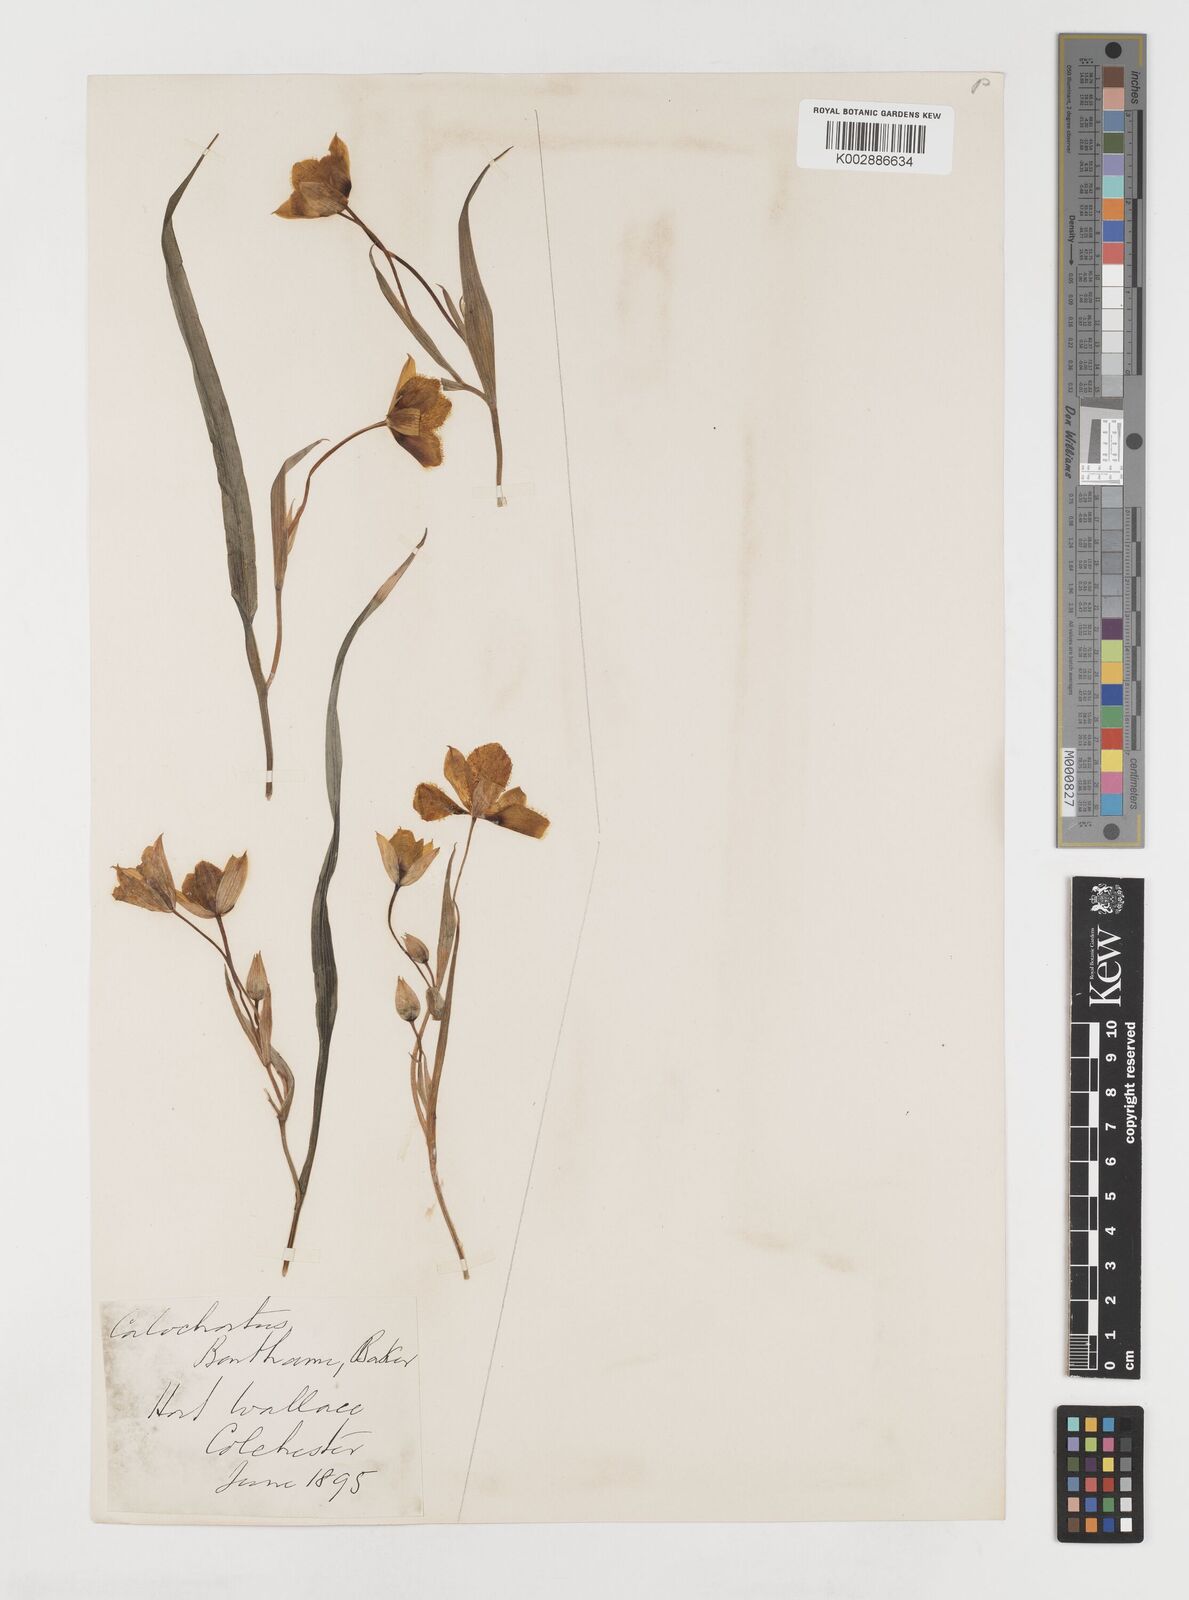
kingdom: Plantae
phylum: Tracheophyta
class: Liliopsida
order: Liliales
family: Liliaceae
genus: Calochortus
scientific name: Calochortus monophyllus
